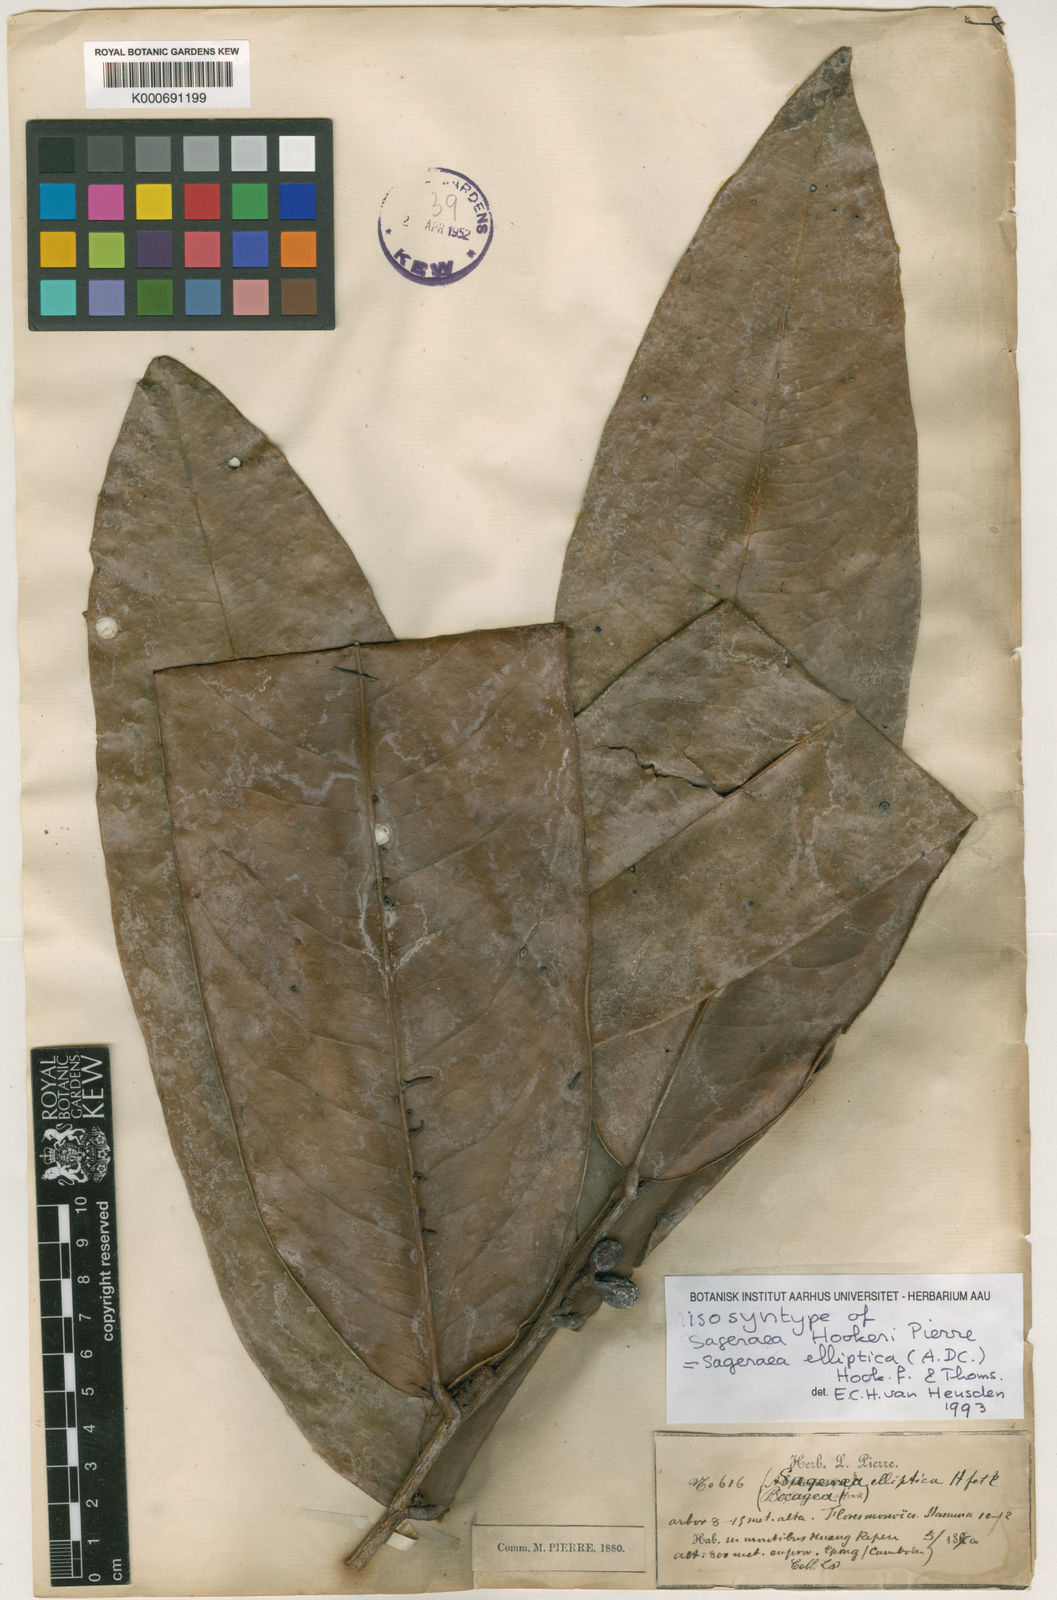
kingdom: Plantae
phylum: Tracheophyta
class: Magnoliopsida
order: Magnoliales
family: Annonaceae
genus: Sageraea
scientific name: Sageraea elliptica
